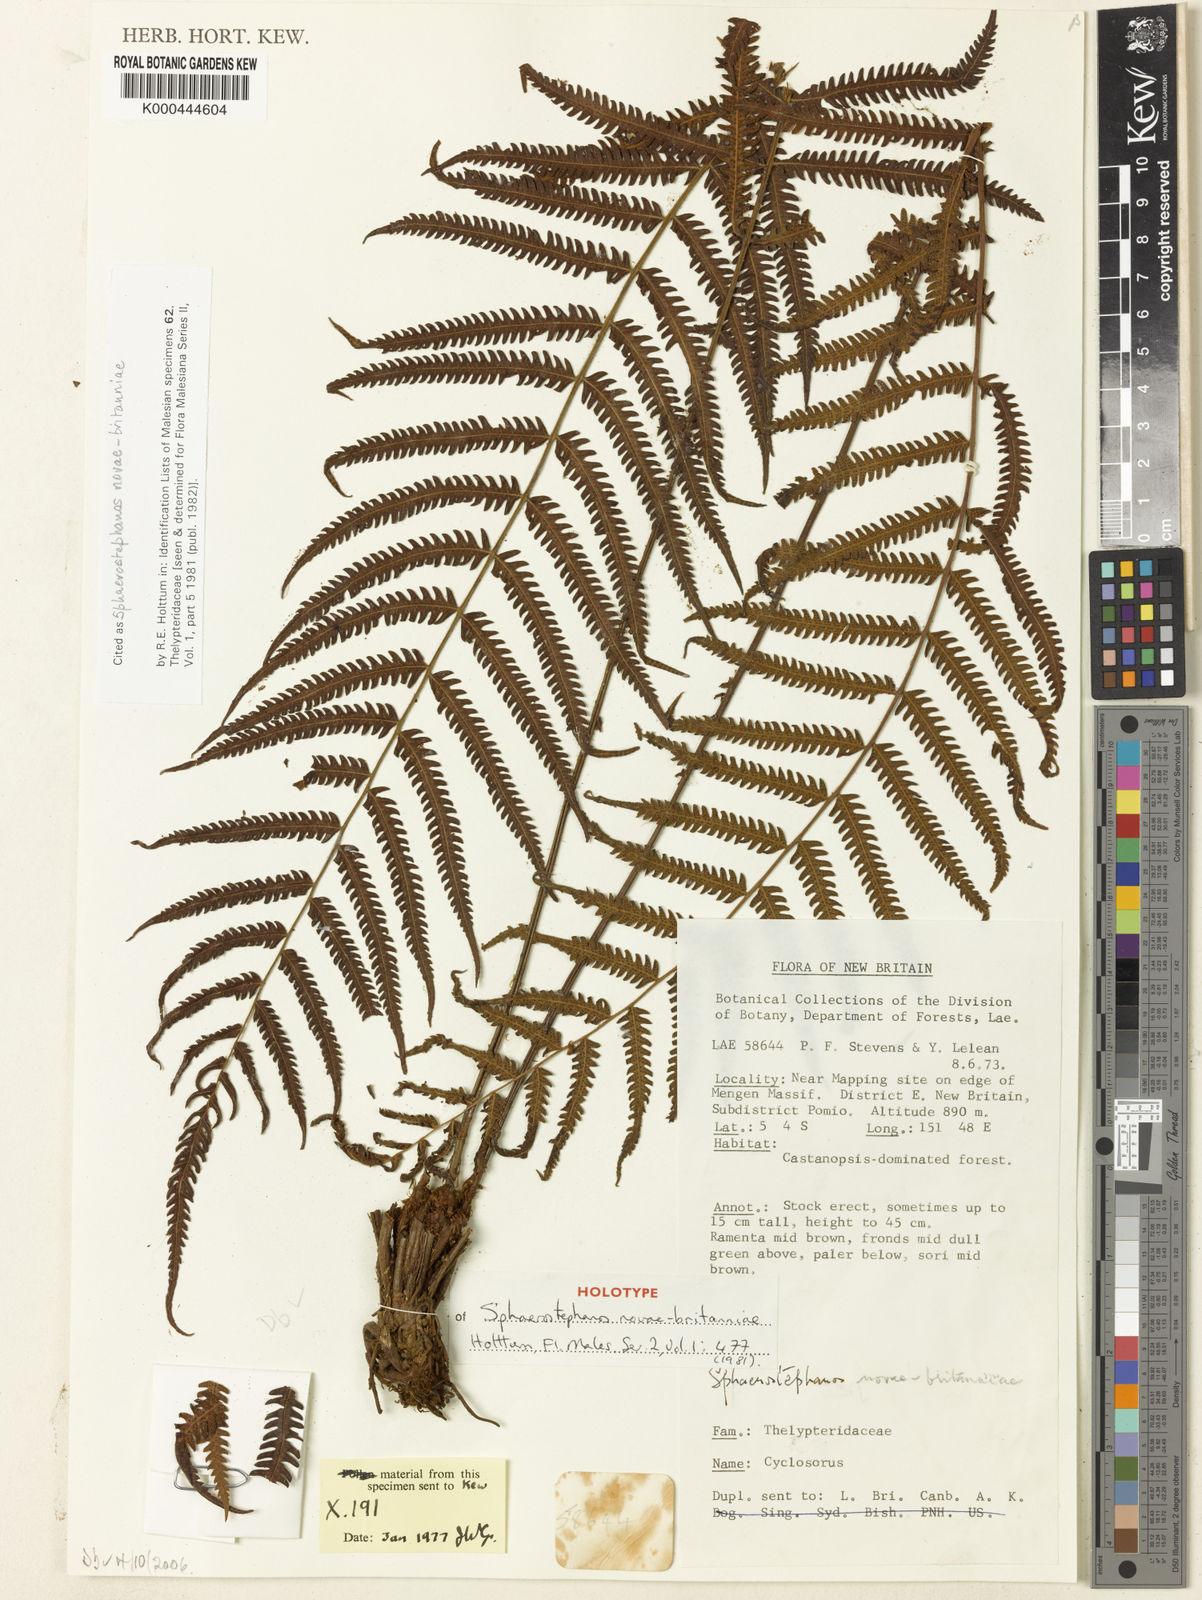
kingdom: Plantae
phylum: Tracheophyta
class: Polypodiopsida
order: Polypodiales
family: Thelypteridaceae
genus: Sphaerostephanos
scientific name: Sphaerostephanos novae-britanniae
